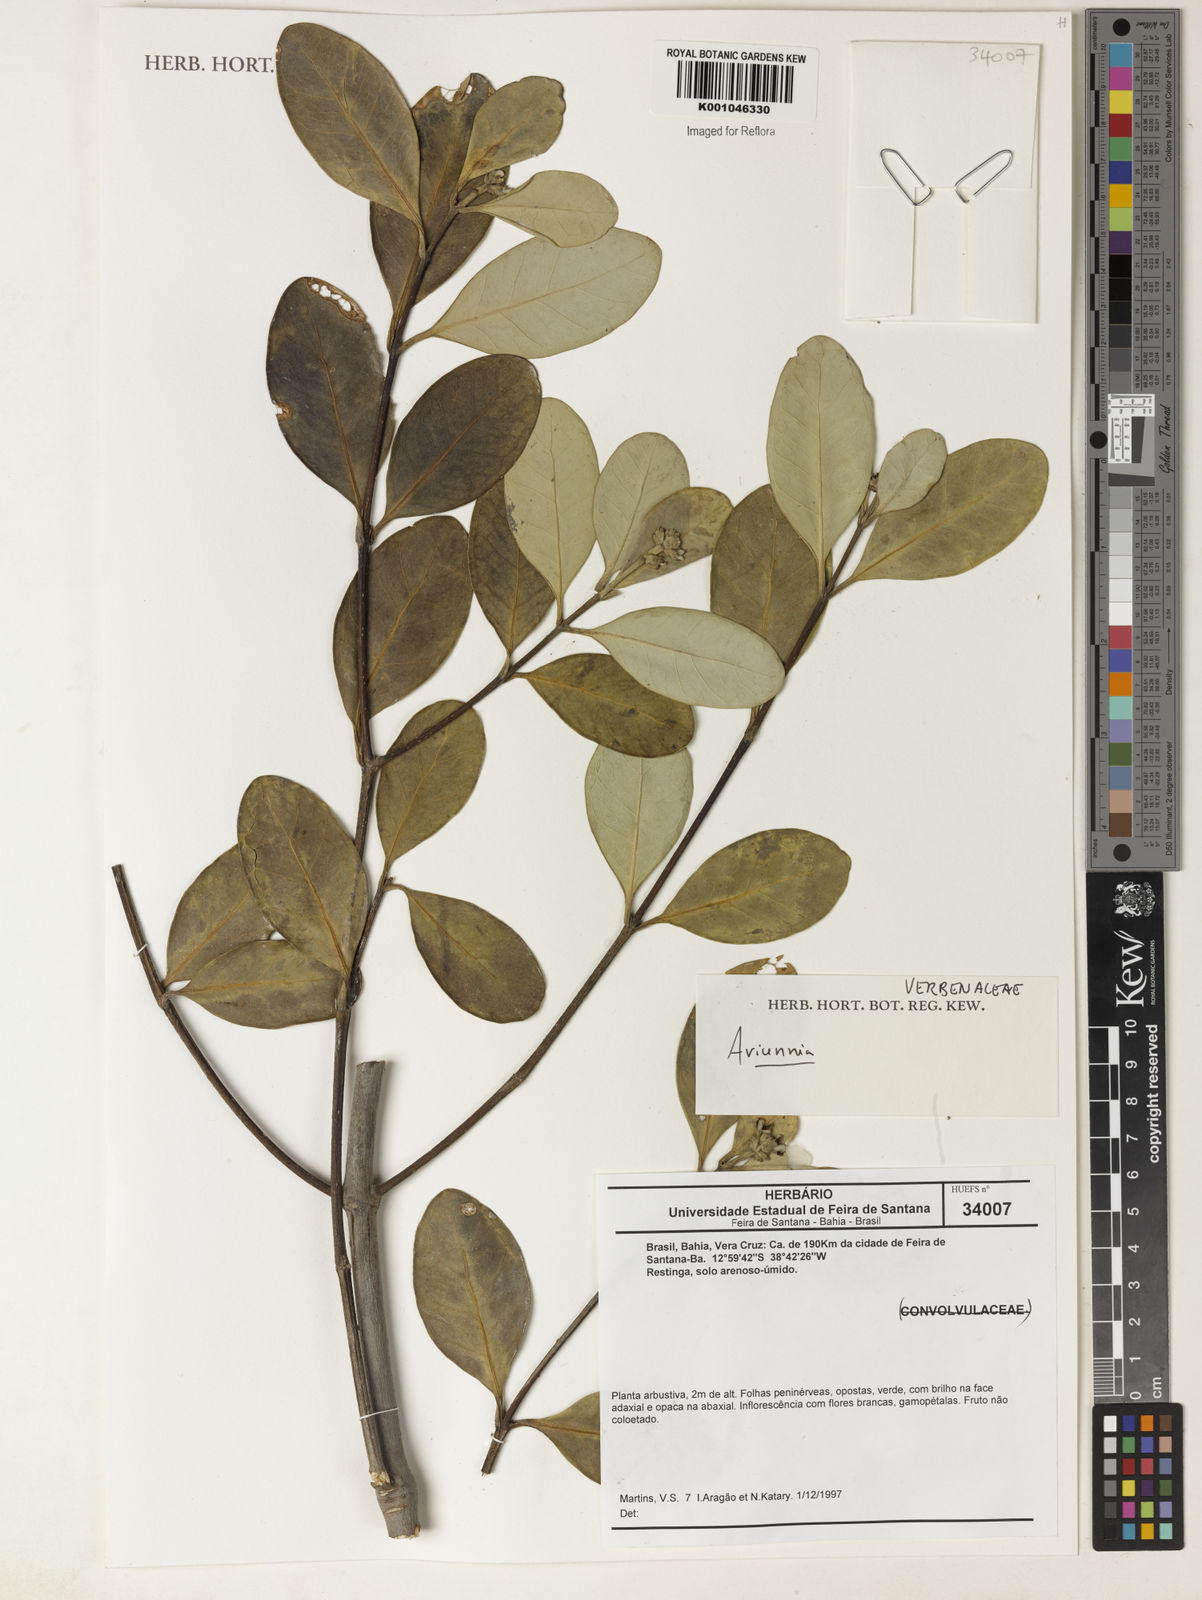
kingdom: Plantae
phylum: Tracheophyta
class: Magnoliopsida
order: Lamiales
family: Acanthaceae
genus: Avicennia
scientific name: Avicennia
